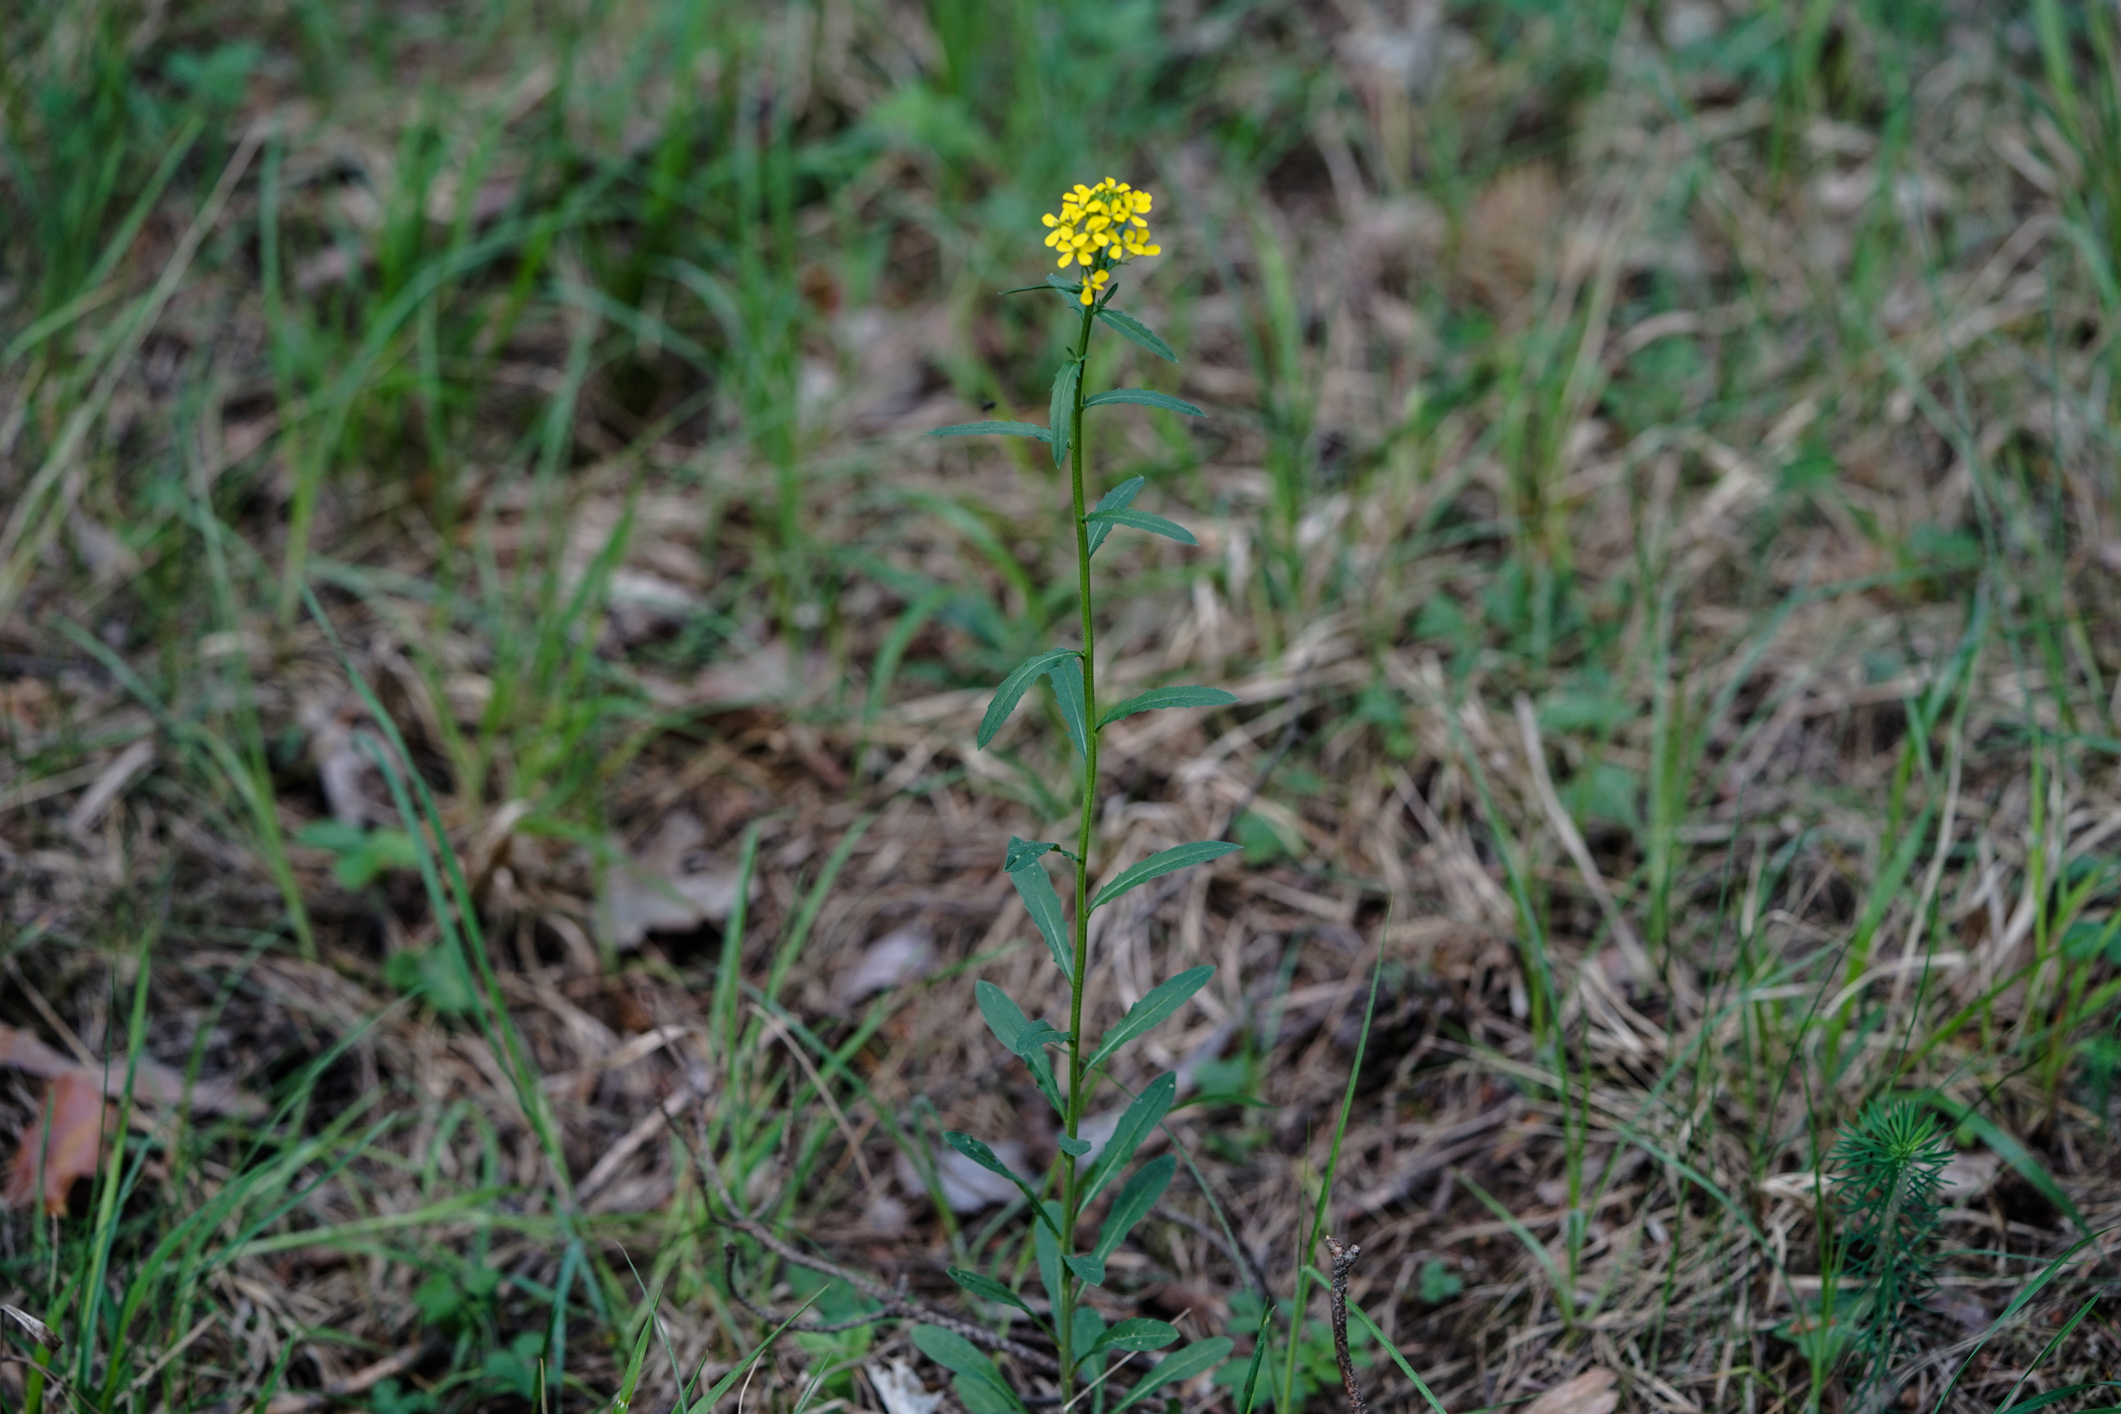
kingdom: Plantae
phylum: Tracheophyta
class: Magnoliopsida
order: Brassicales
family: Brassicaceae
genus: Erysimum
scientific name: Erysimum cheiranthoides
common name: Treacle mustard
